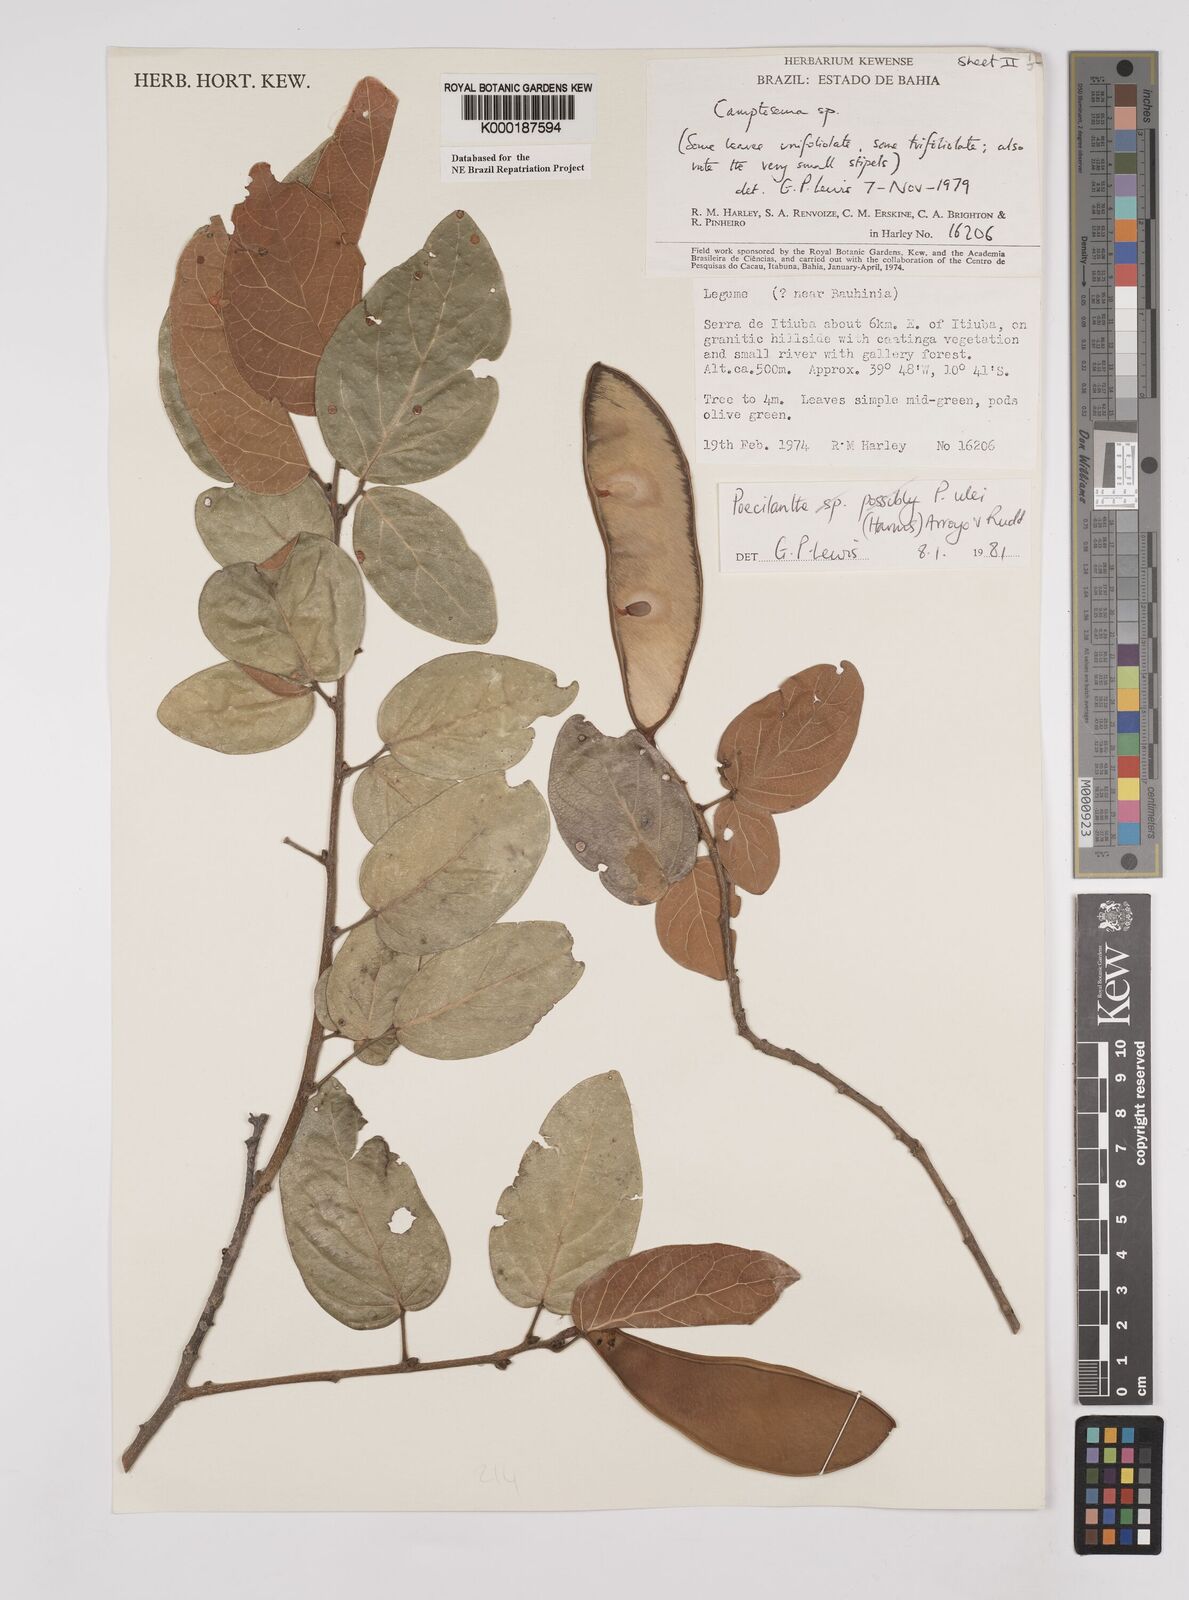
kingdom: Plantae
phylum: Tracheophyta
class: Magnoliopsida
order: Fabales
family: Fabaceae
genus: Poecilanthe
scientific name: Poecilanthe ulei
